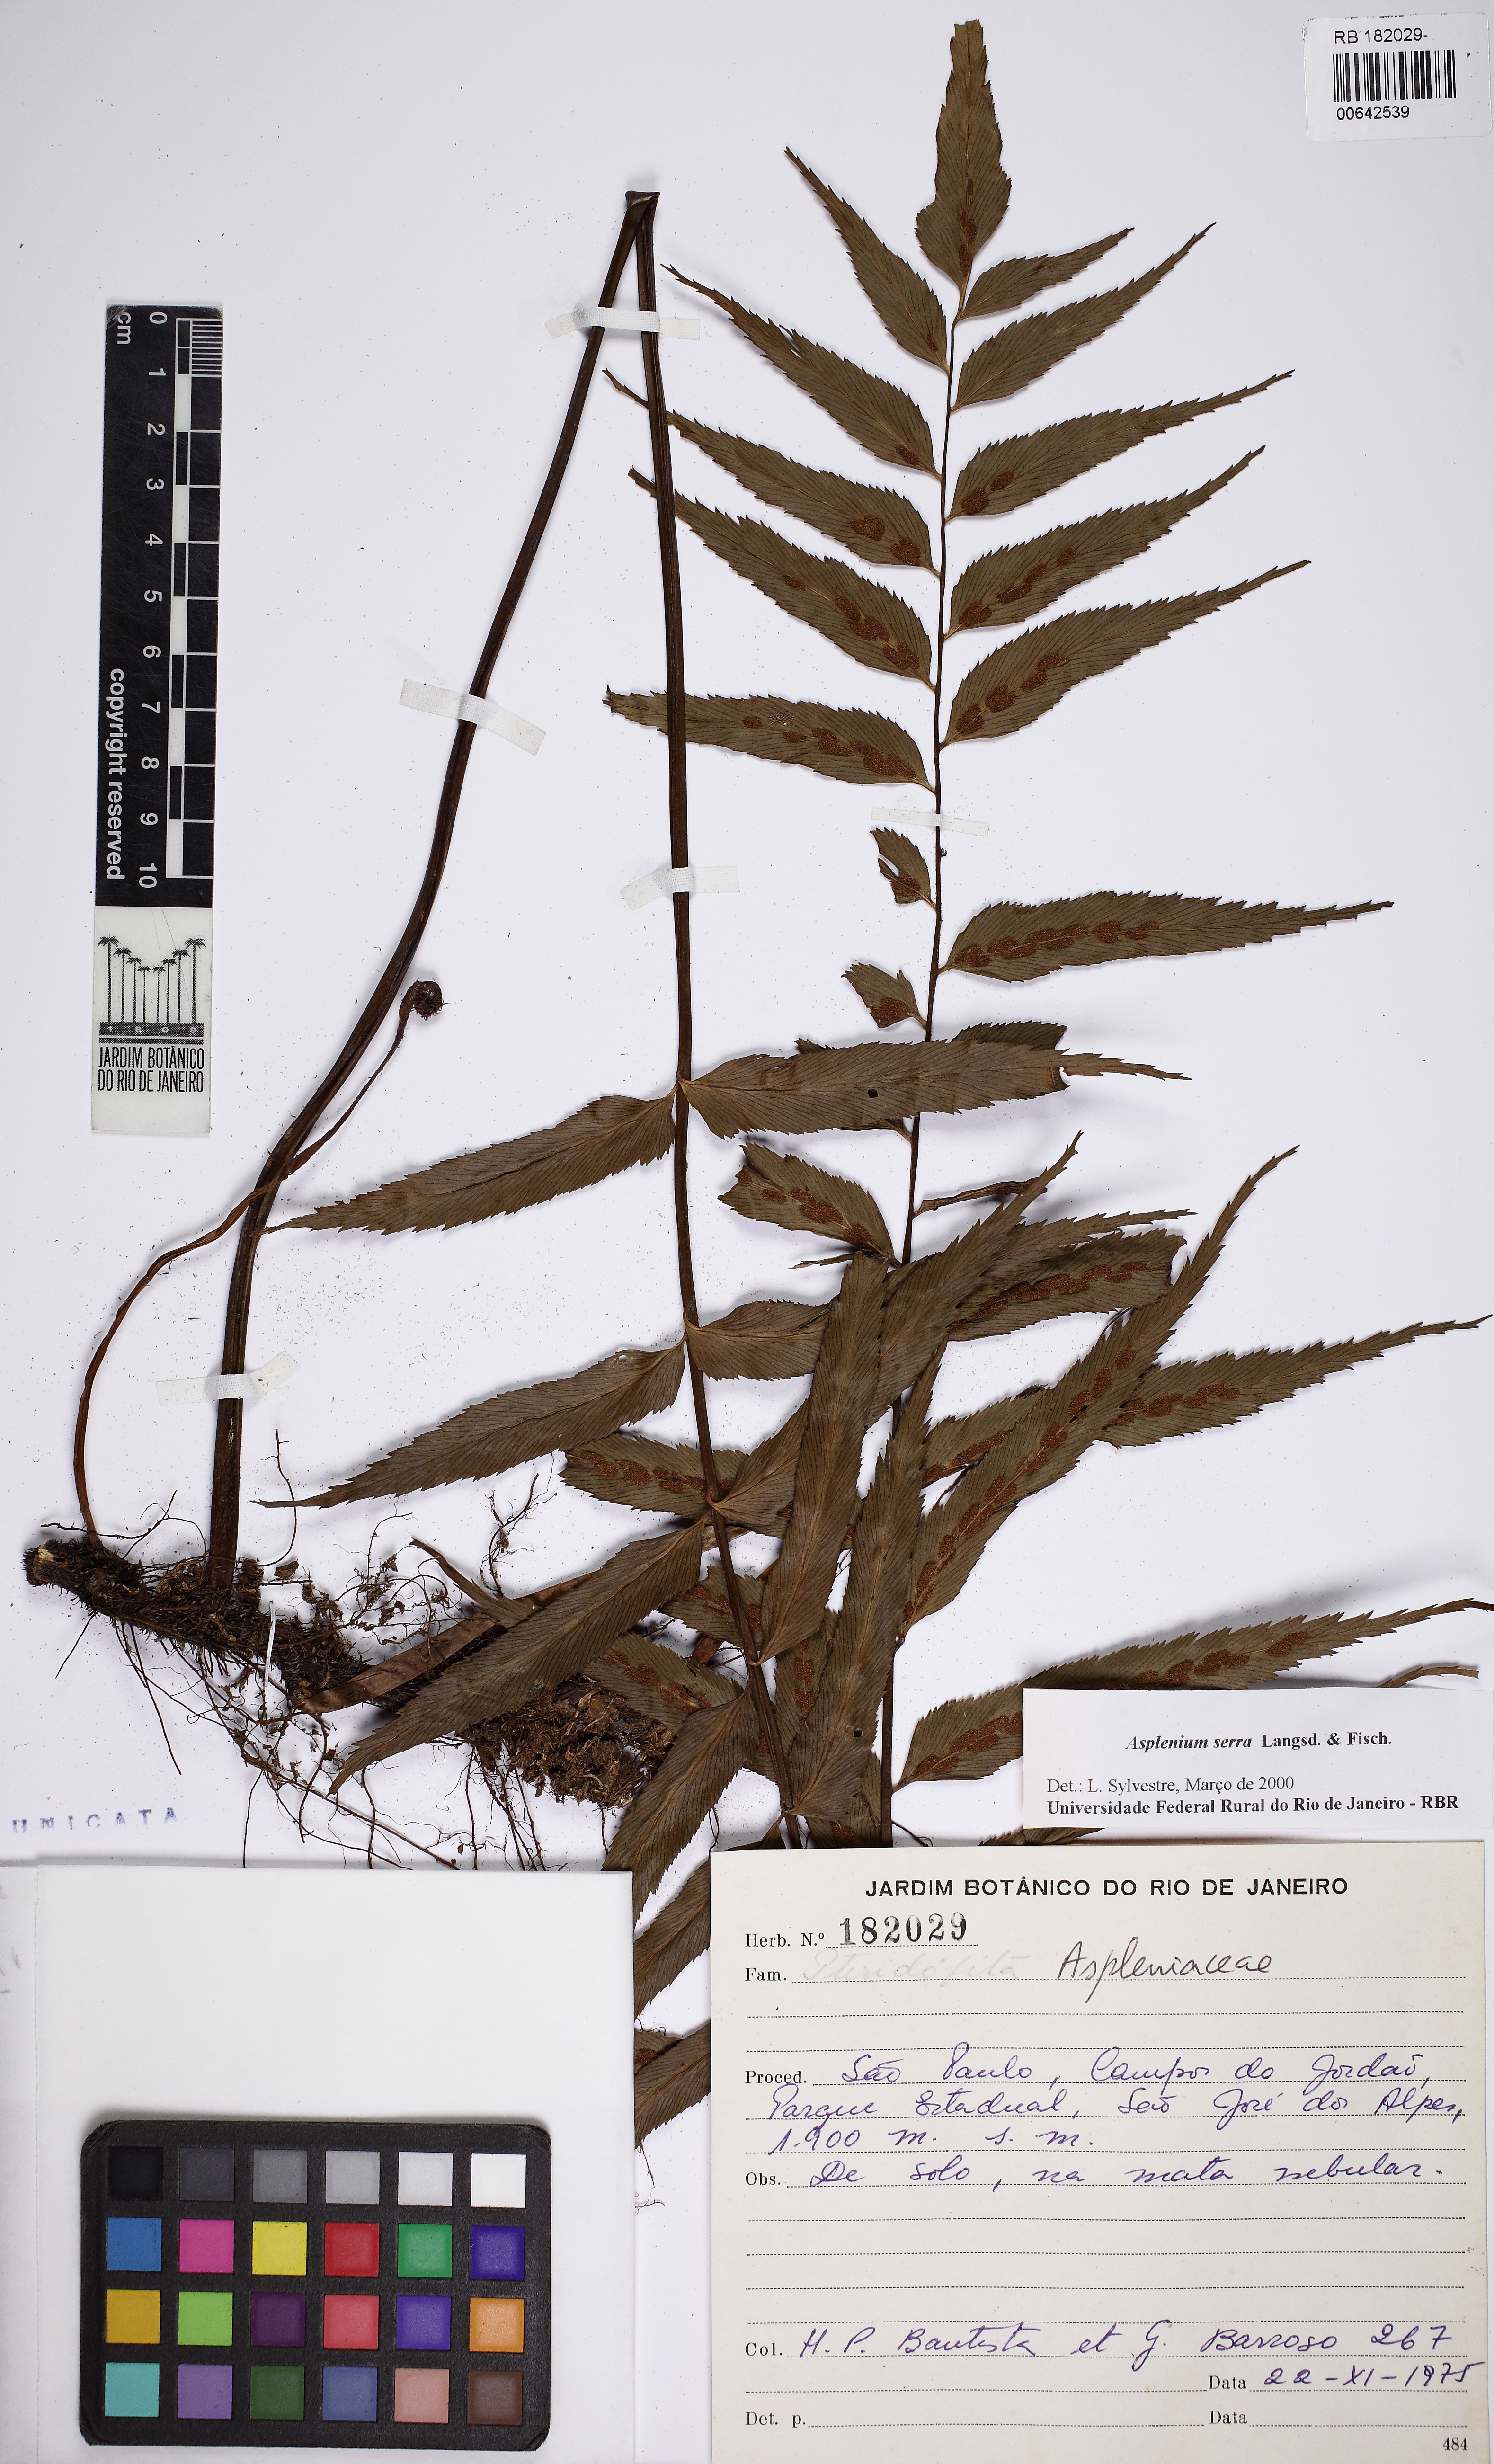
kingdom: Plantae
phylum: Tracheophyta
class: Polypodiopsida
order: Polypodiales
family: Aspleniaceae
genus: Asplenium
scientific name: Asplenium serra
